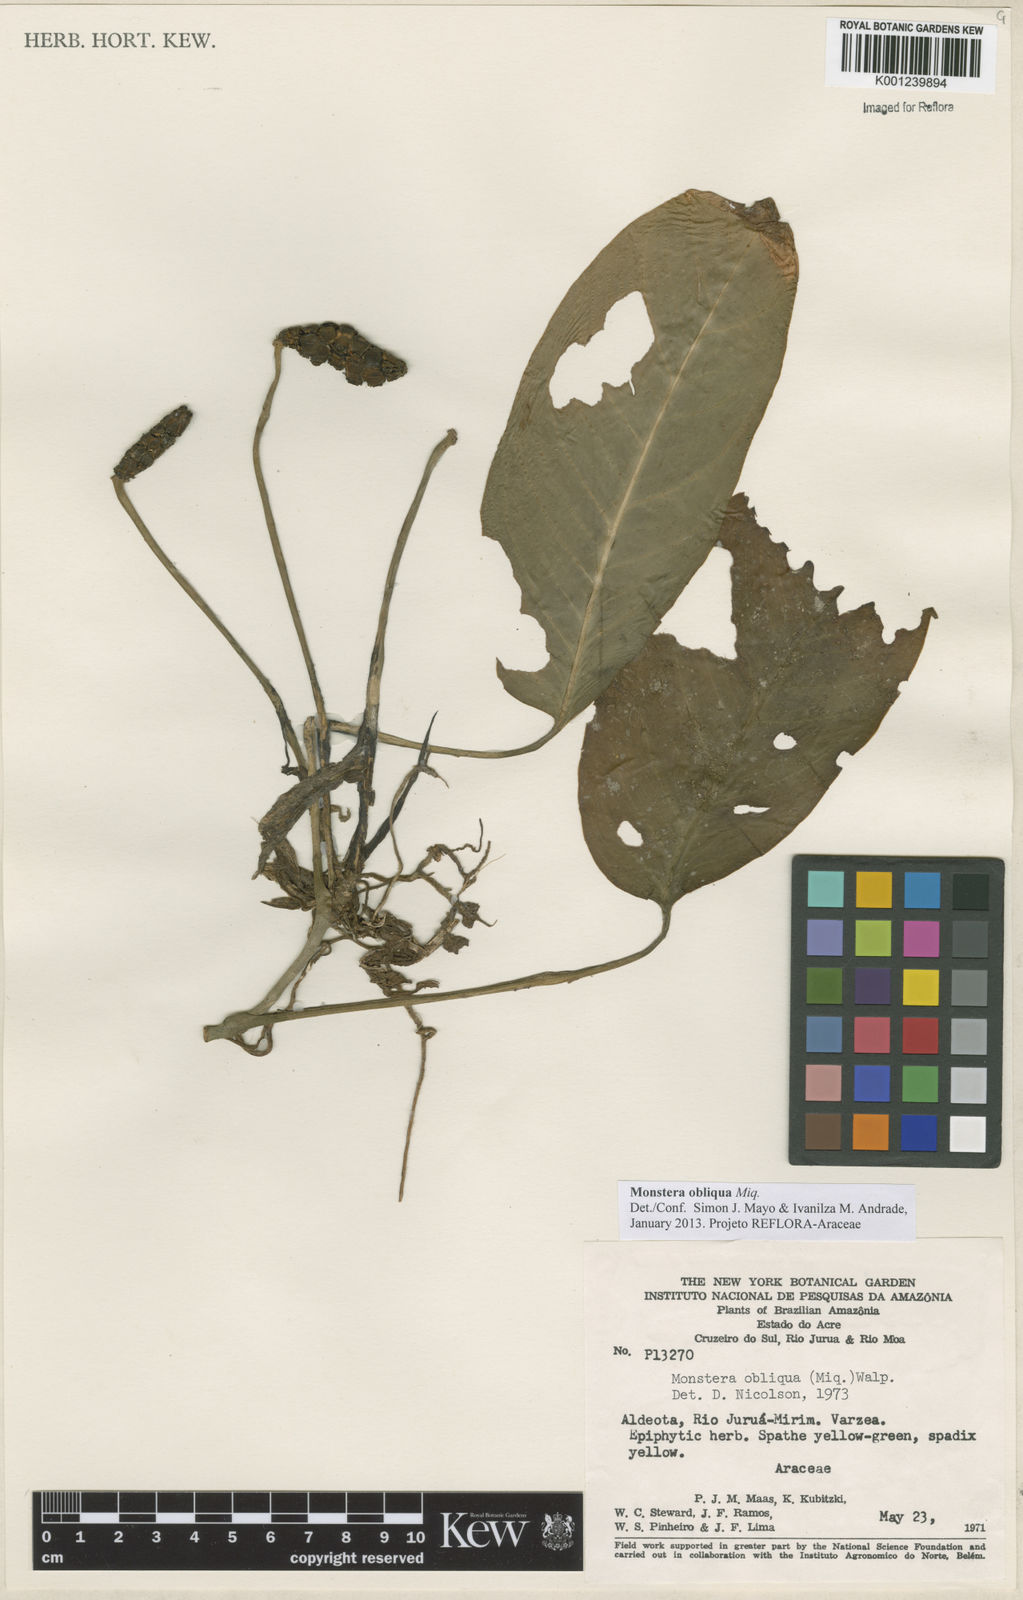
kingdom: Plantae
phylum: Tracheophyta
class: Liliopsida
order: Alismatales
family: Araceae
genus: Monstera
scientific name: Monstera obliqua
